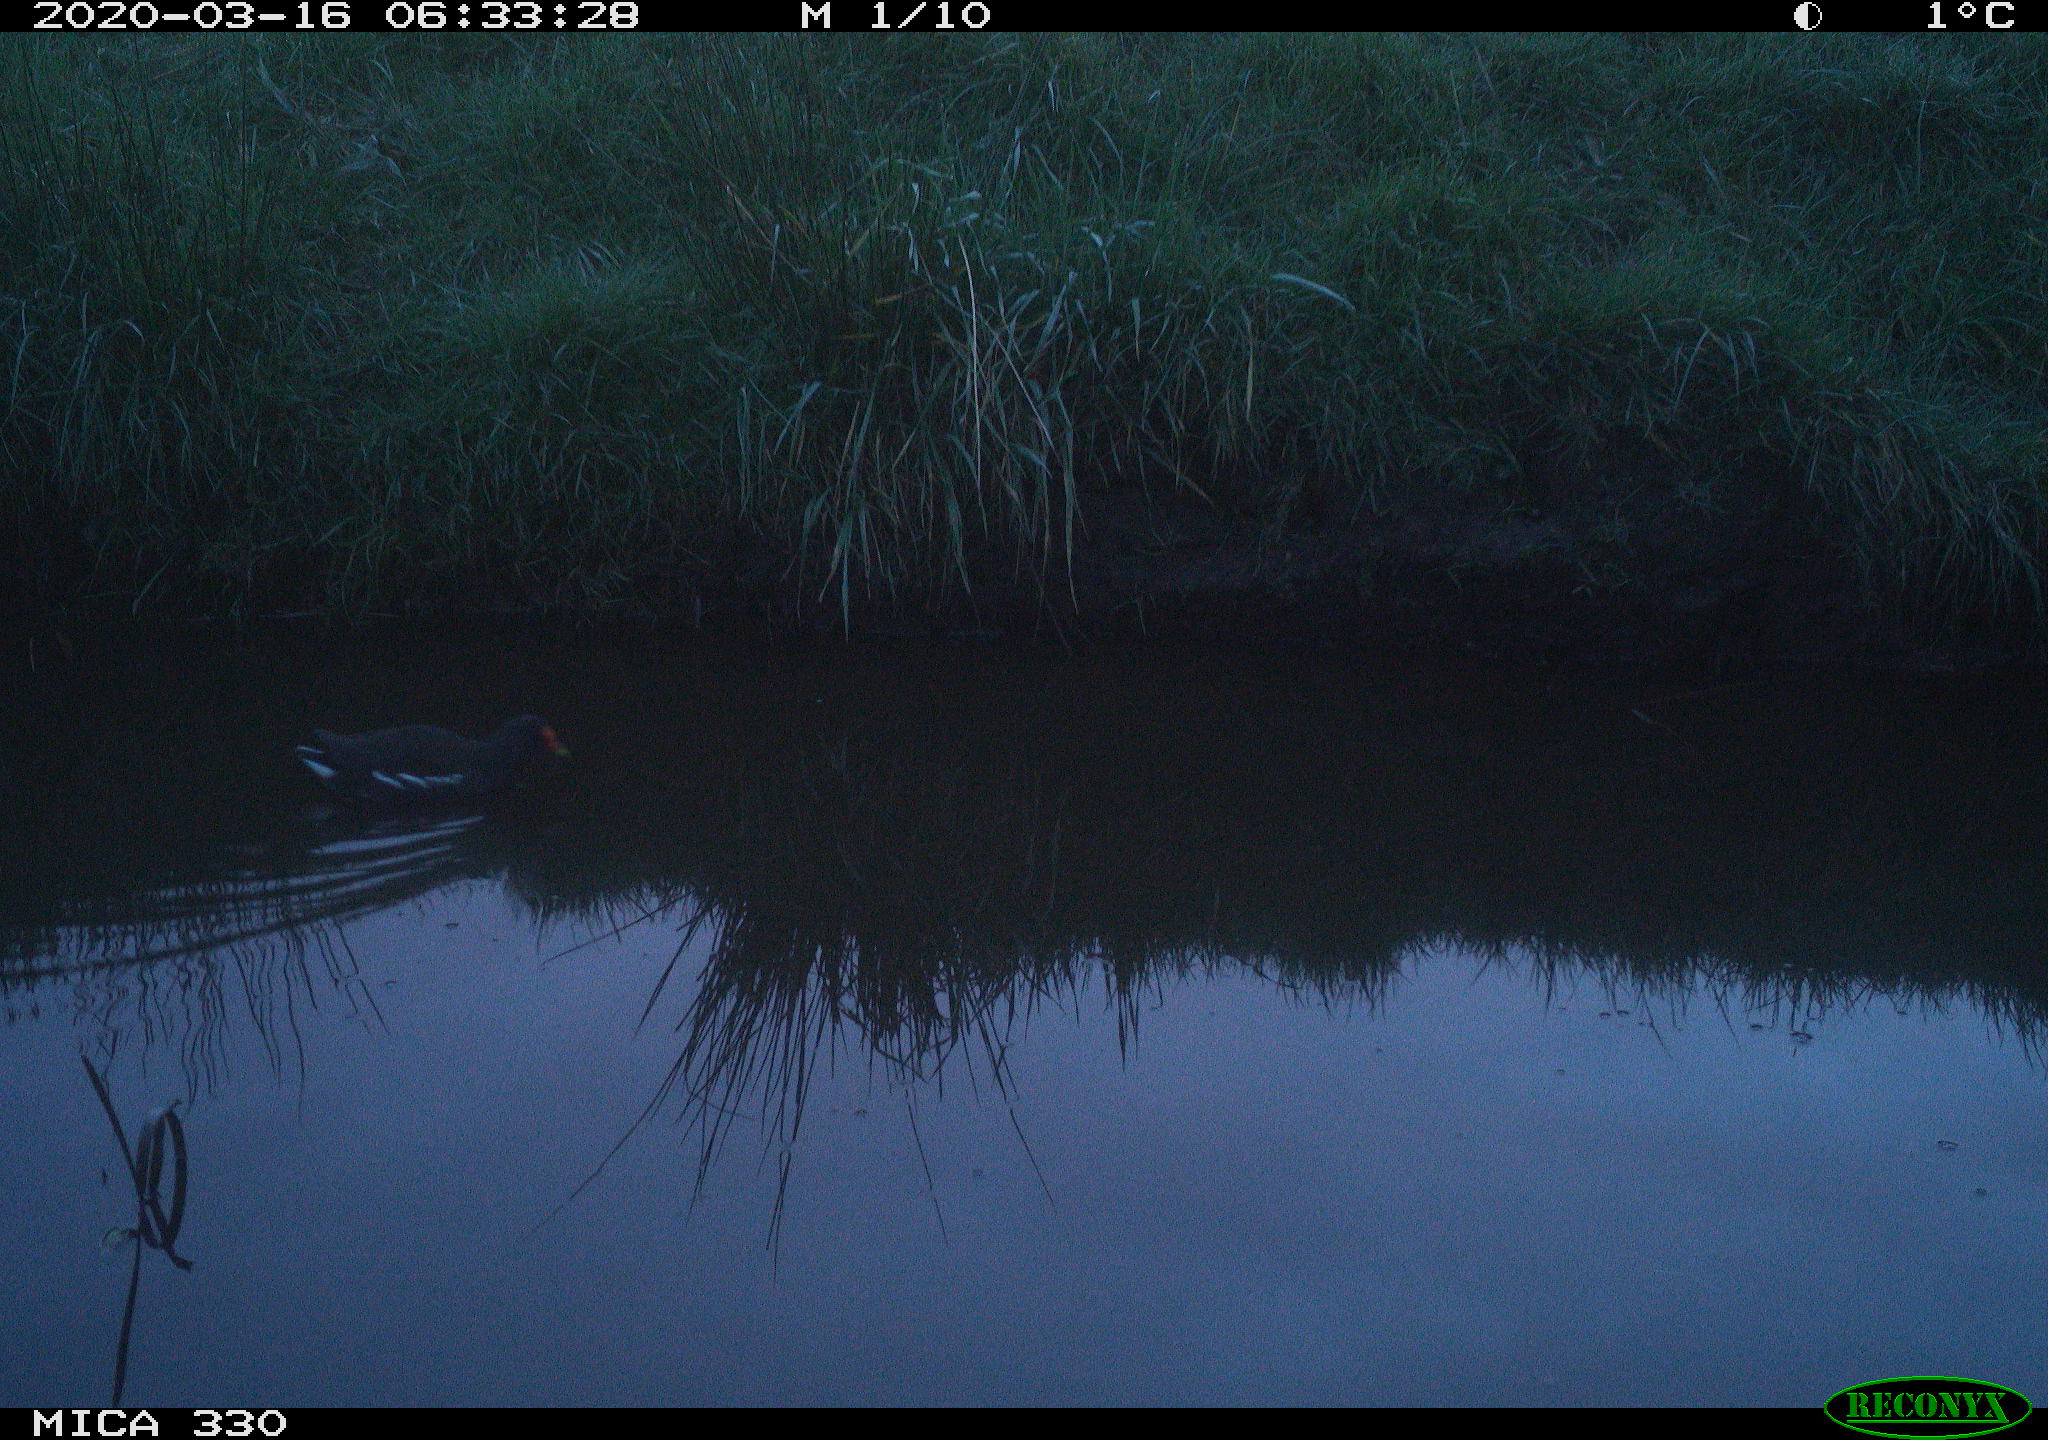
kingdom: Animalia
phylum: Chordata
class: Aves
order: Gruiformes
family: Rallidae
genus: Gallinula
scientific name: Gallinula chloropus
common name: Common moorhen
